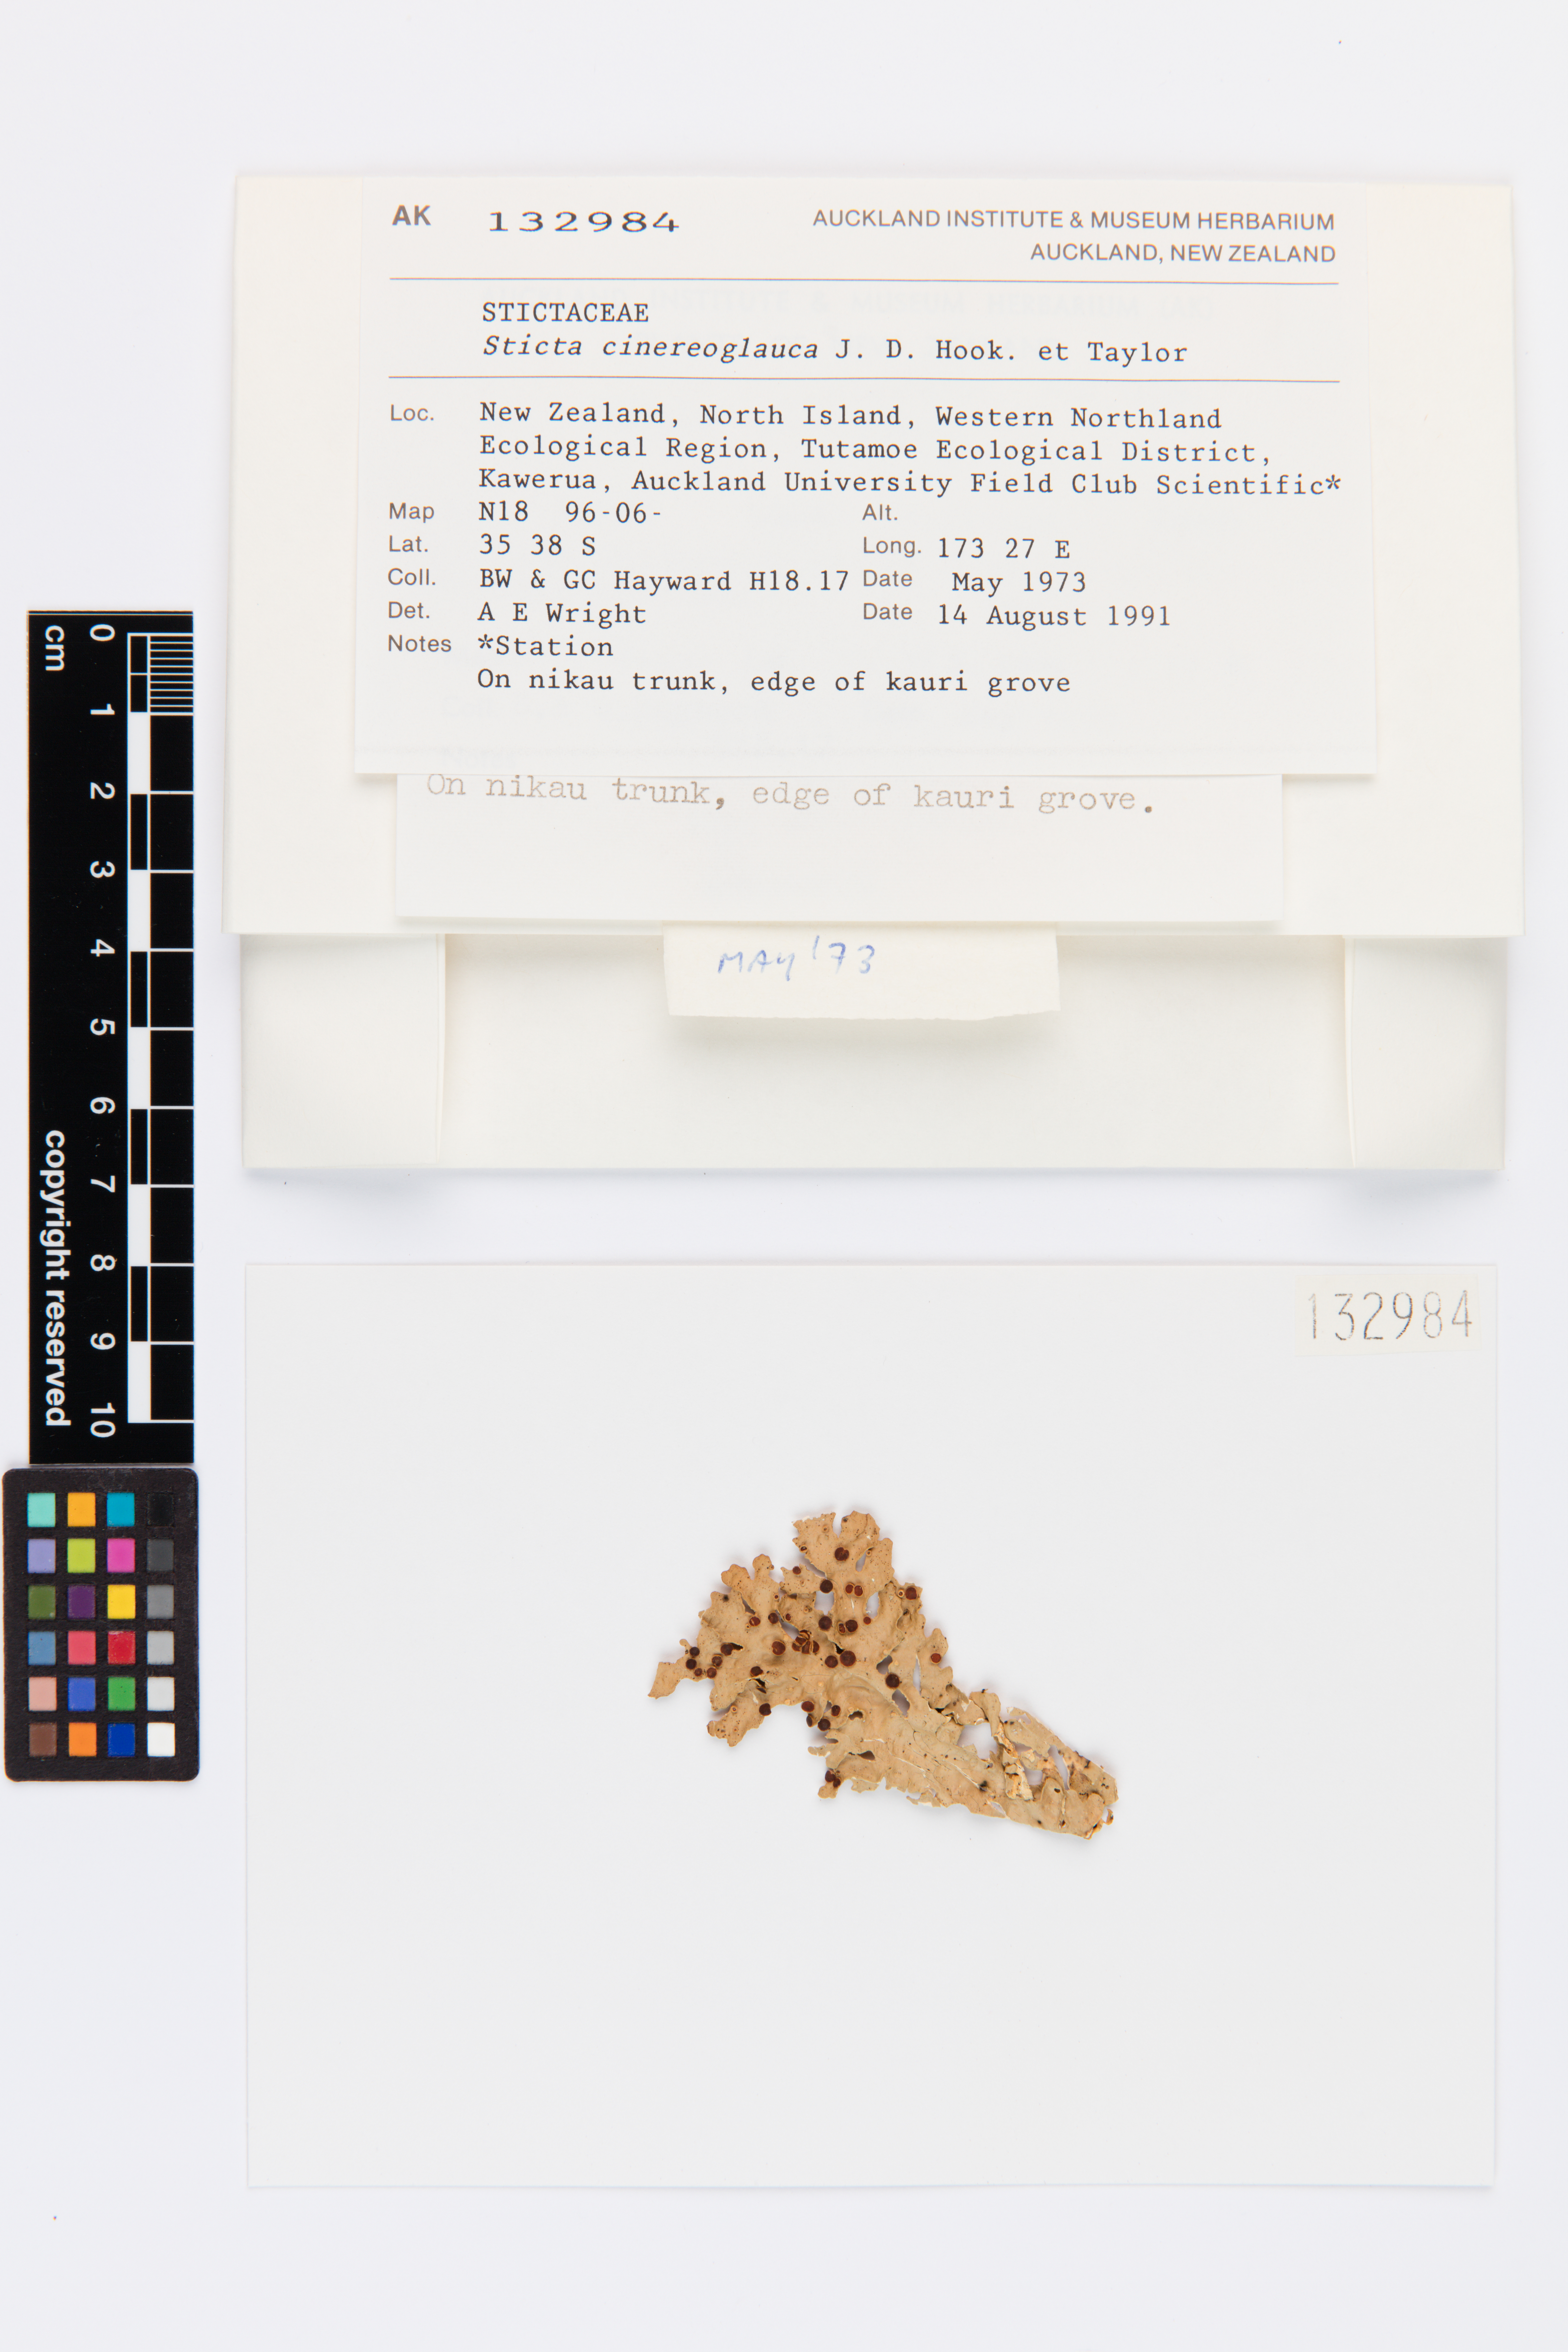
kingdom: Fungi
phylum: Ascomycota
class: Lecanoromycetes
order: Peltigerales
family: Lobariaceae
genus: Sticta
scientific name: Sticta cinereoglauca
